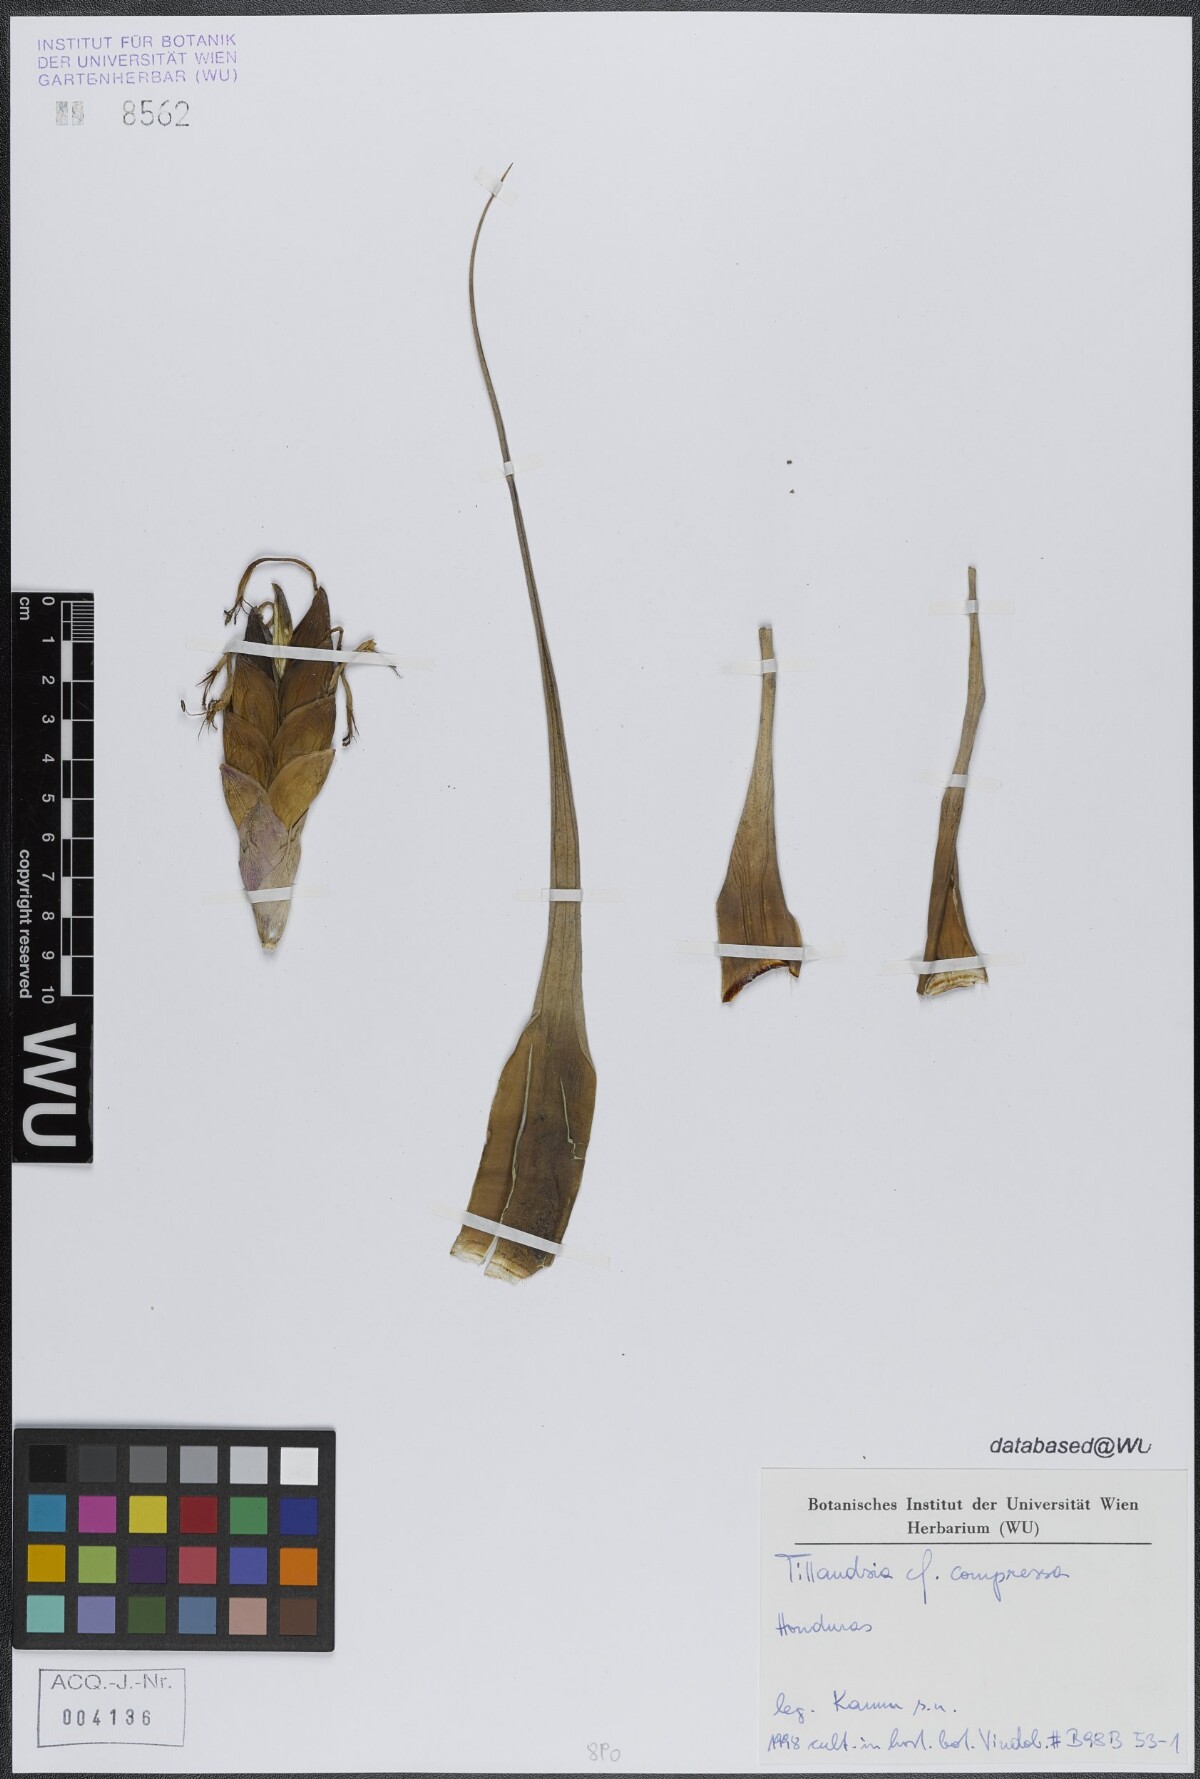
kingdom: Plantae
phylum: Tracheophyta
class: Liliopsida
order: Poales
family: Bromeliaceae
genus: Tillandsia
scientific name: Tillandsia fasciculata
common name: Giant airplant
